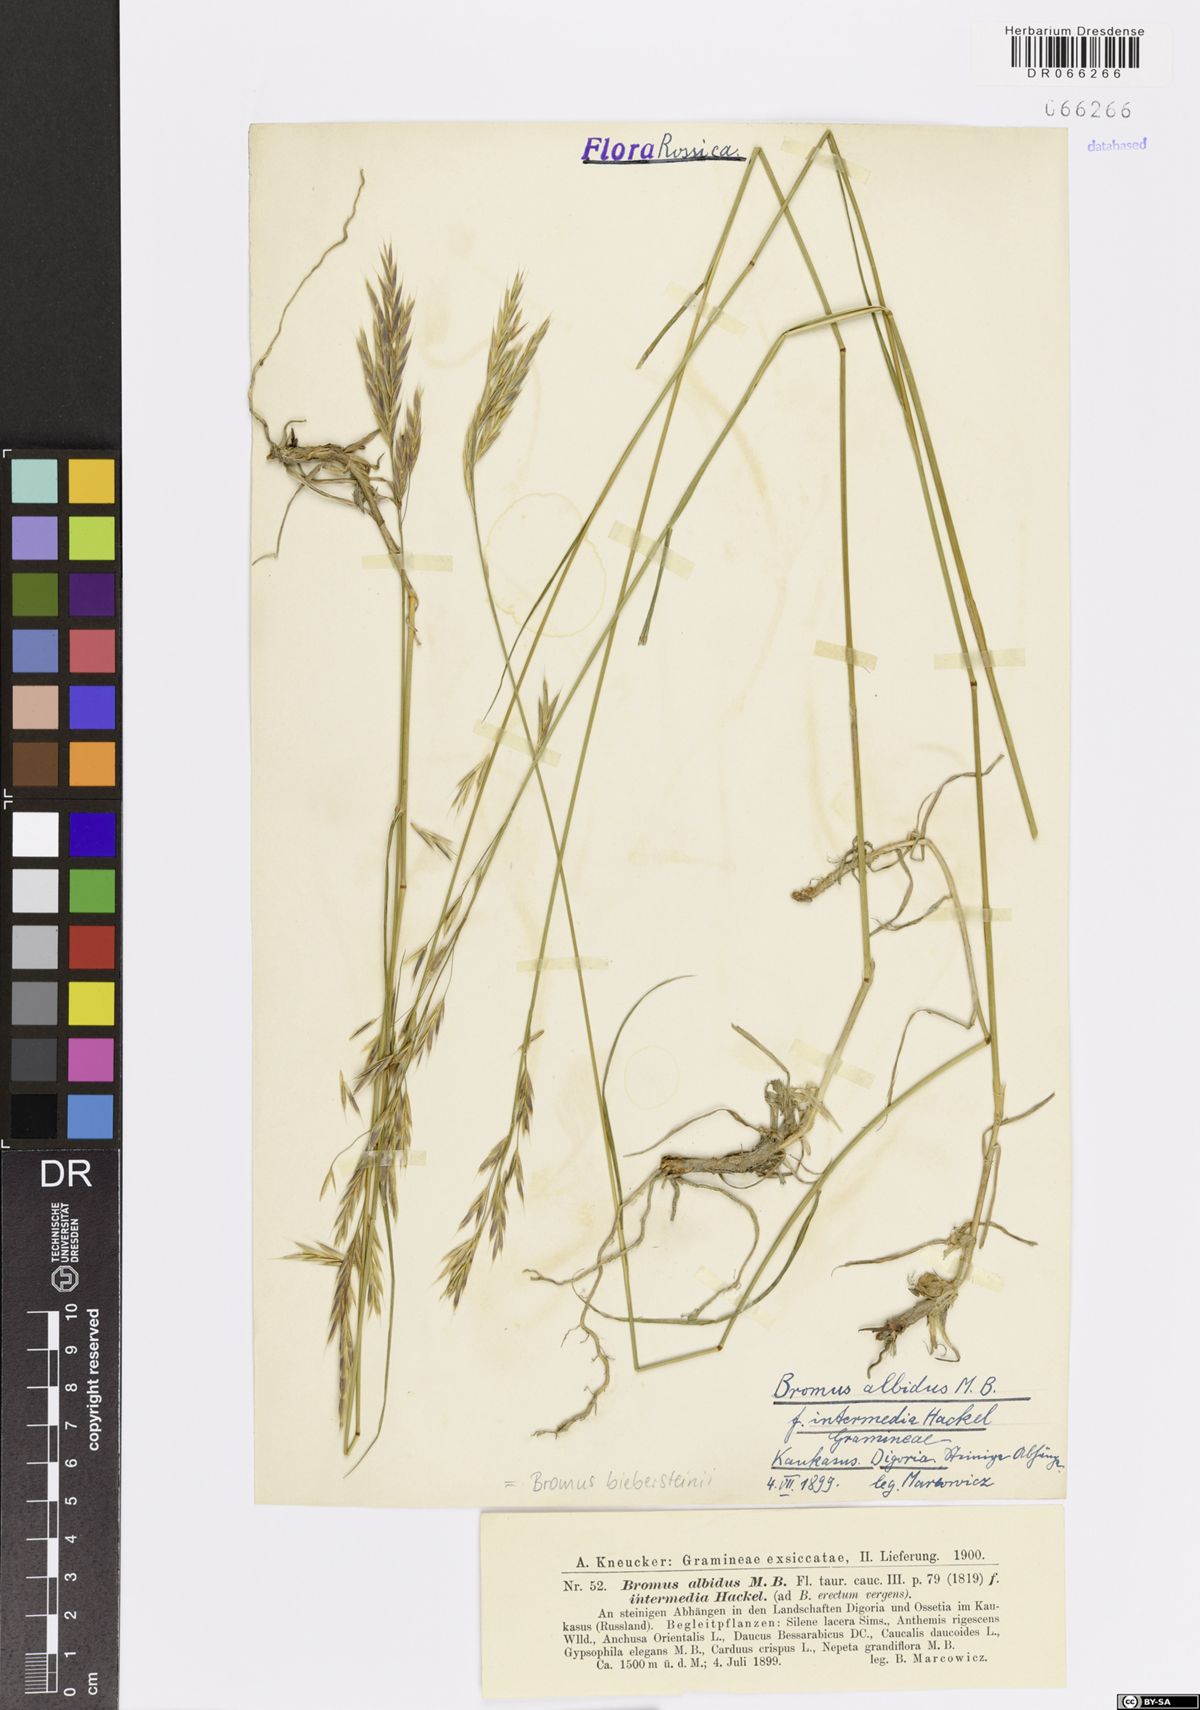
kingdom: Plantae
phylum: Tracheophyta
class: Liliopsida
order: Poales
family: Poaceae
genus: Bromus
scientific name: Bromus biebersteinii
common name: Bieberstein brome
